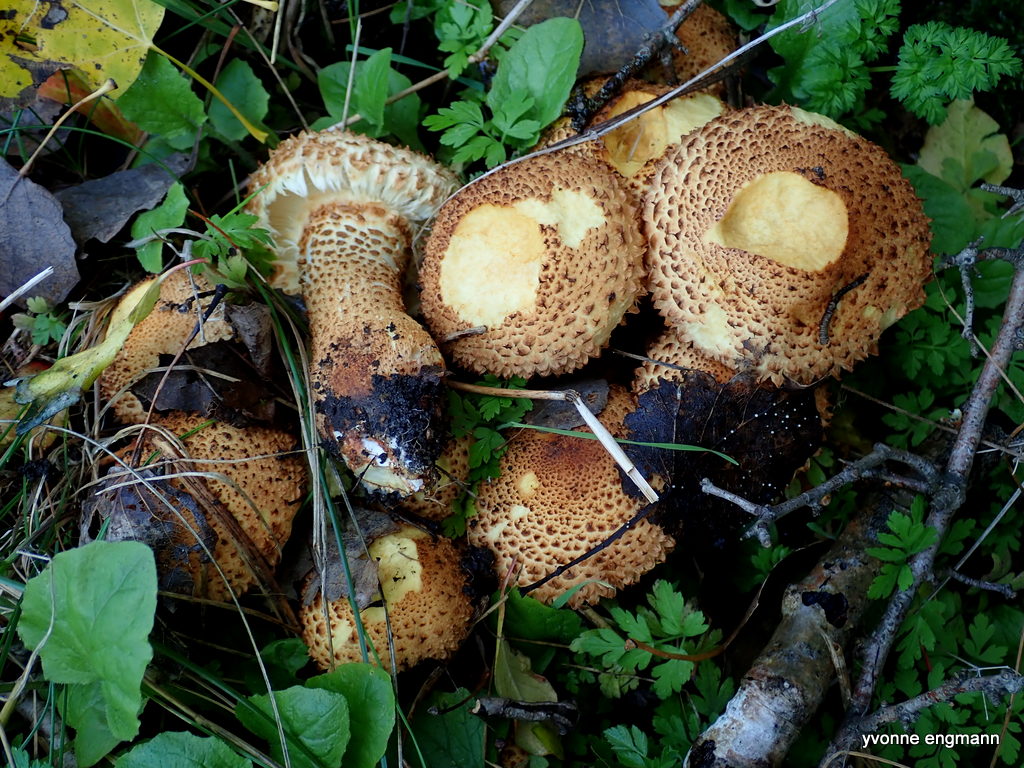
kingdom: Fungi
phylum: Basidiomycota
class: Agaricomycetes
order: Agaricales
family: Strophariaceae
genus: Pholiota
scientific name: Pholiota squarrosa
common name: krumskællet skælhat
